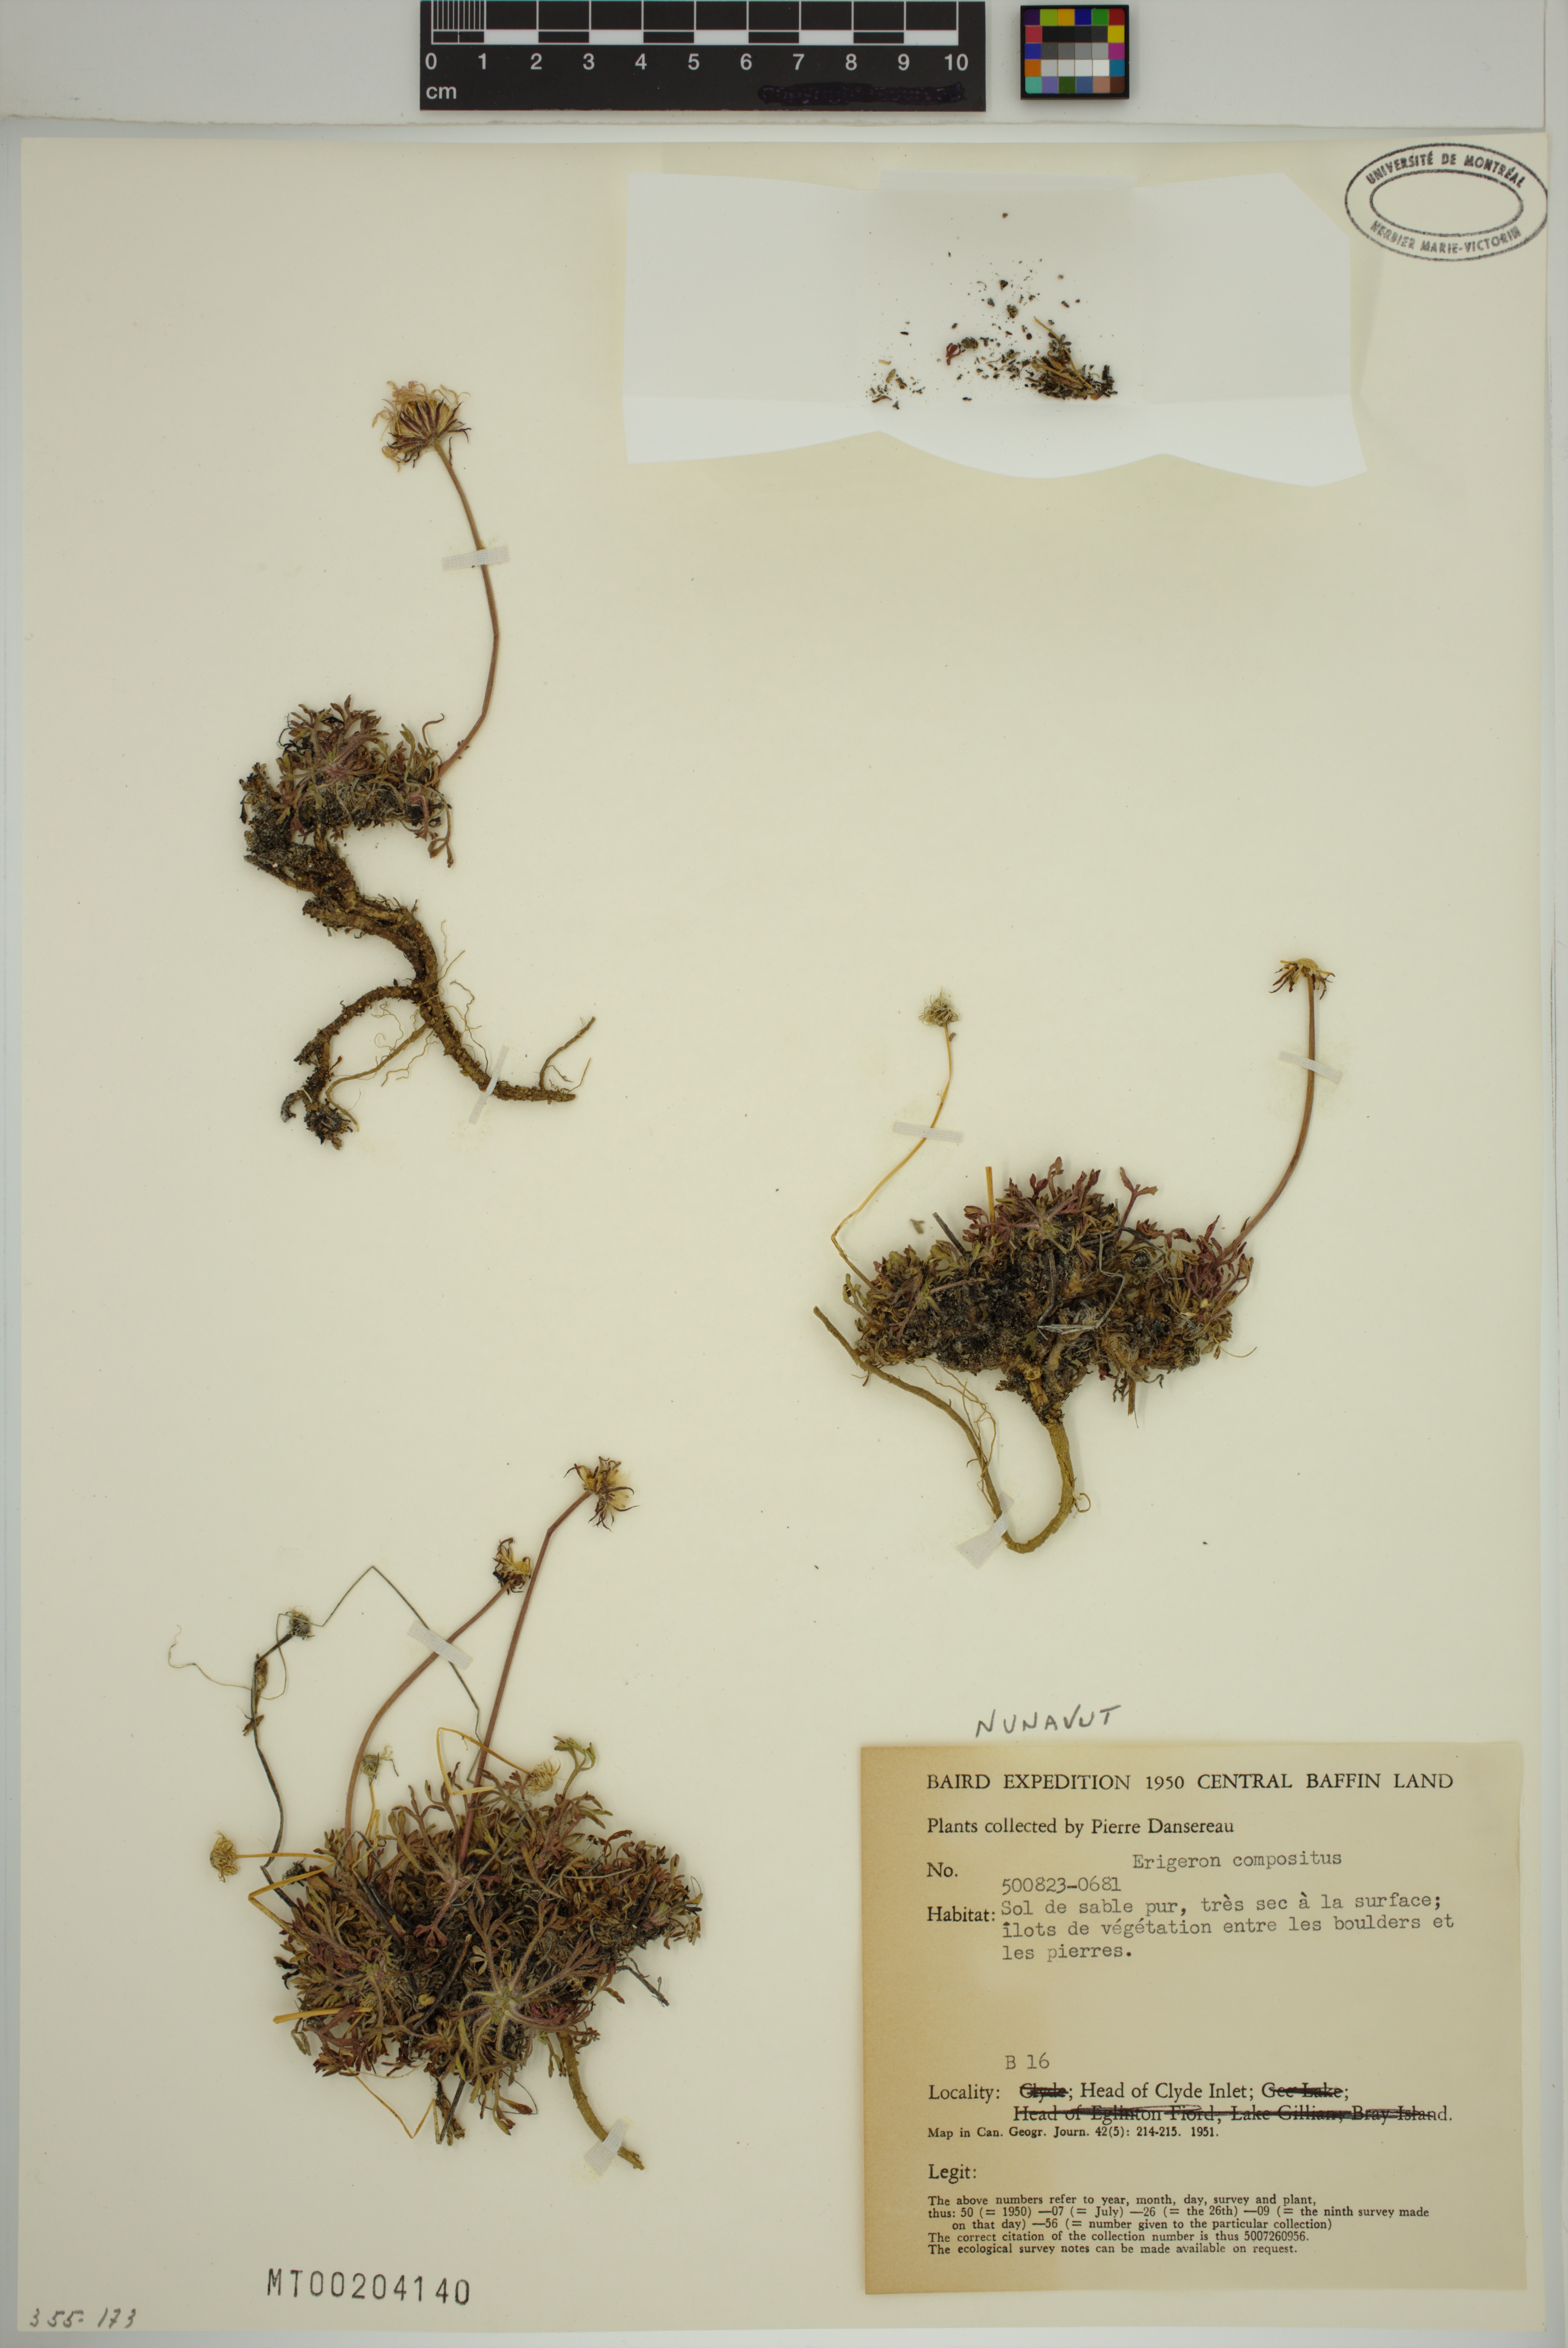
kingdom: Plantae
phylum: Tracheophyta
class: Magnoliopsida
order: Asterales
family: Asteraceae
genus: Erigeron
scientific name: Erigeron compositus
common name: Dwarf mountain fleabane
